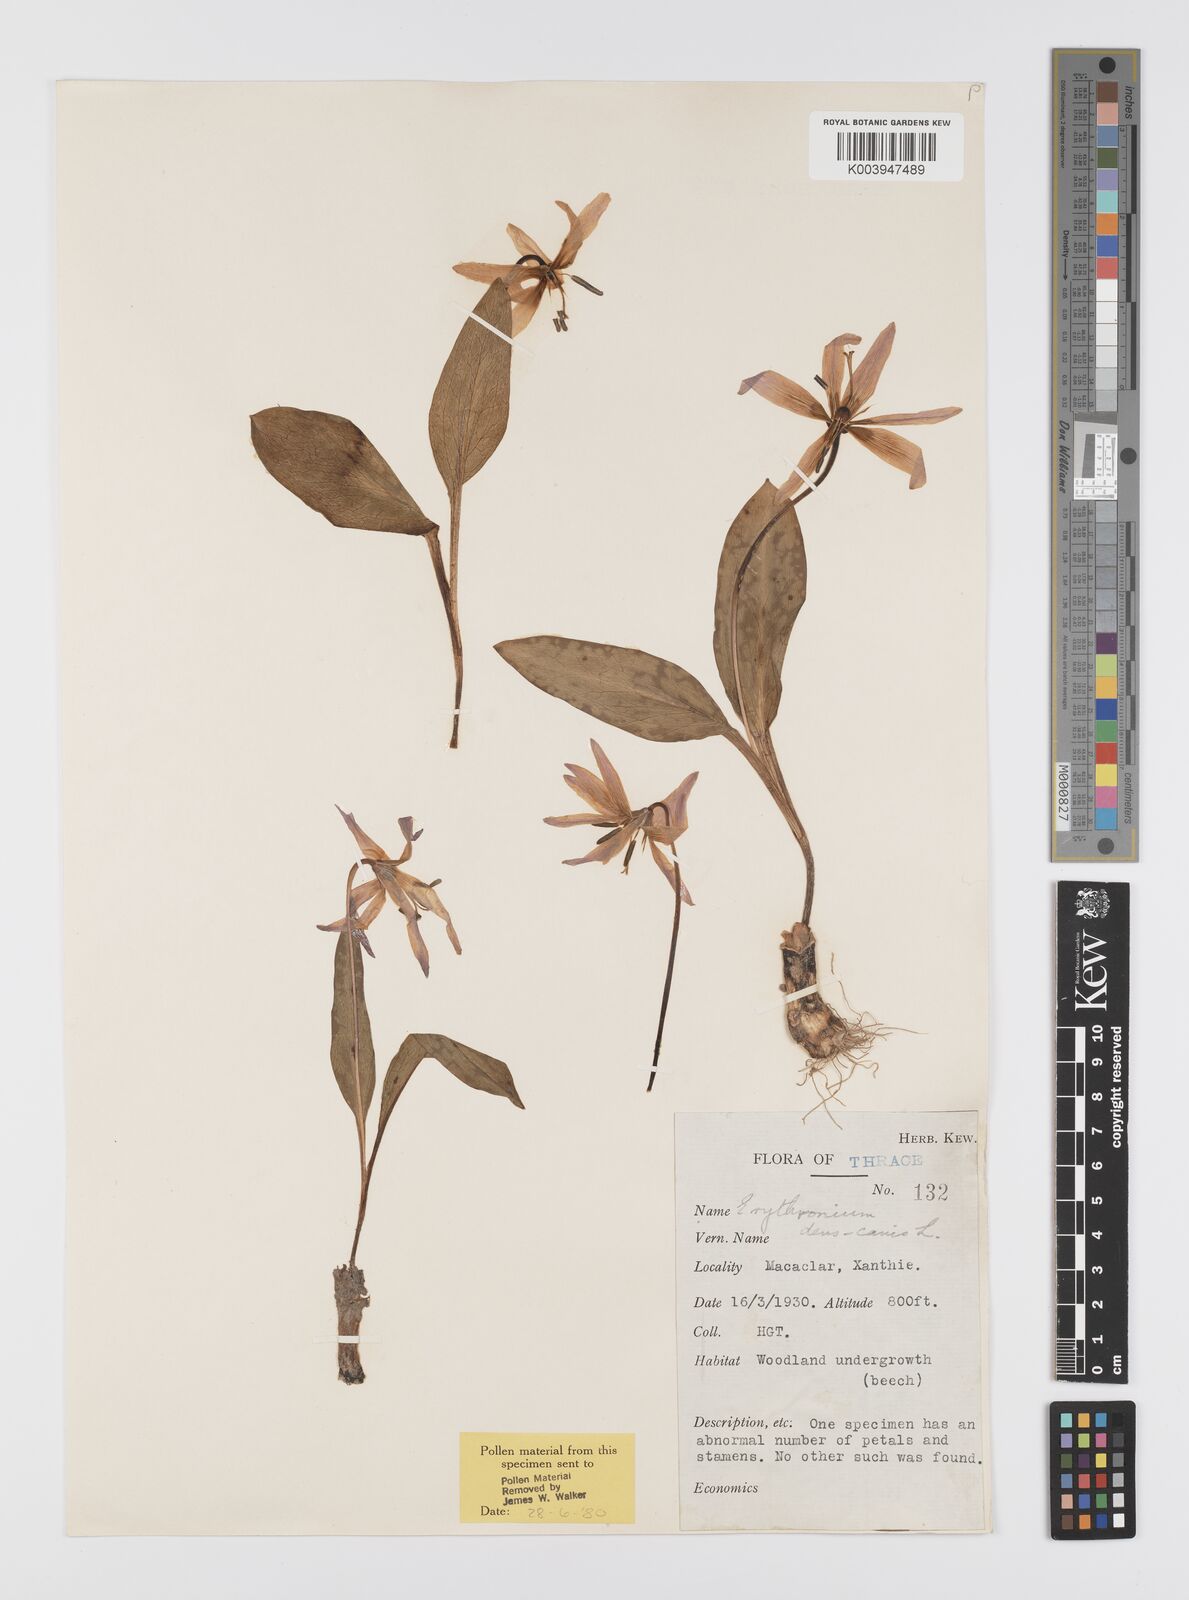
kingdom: Plantae
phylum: Tracheophyta
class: Liliopsida
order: Liliales
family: Liliaceae
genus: Erythronium
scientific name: Erythronium dens-canis
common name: Dog's-tooth-violet
